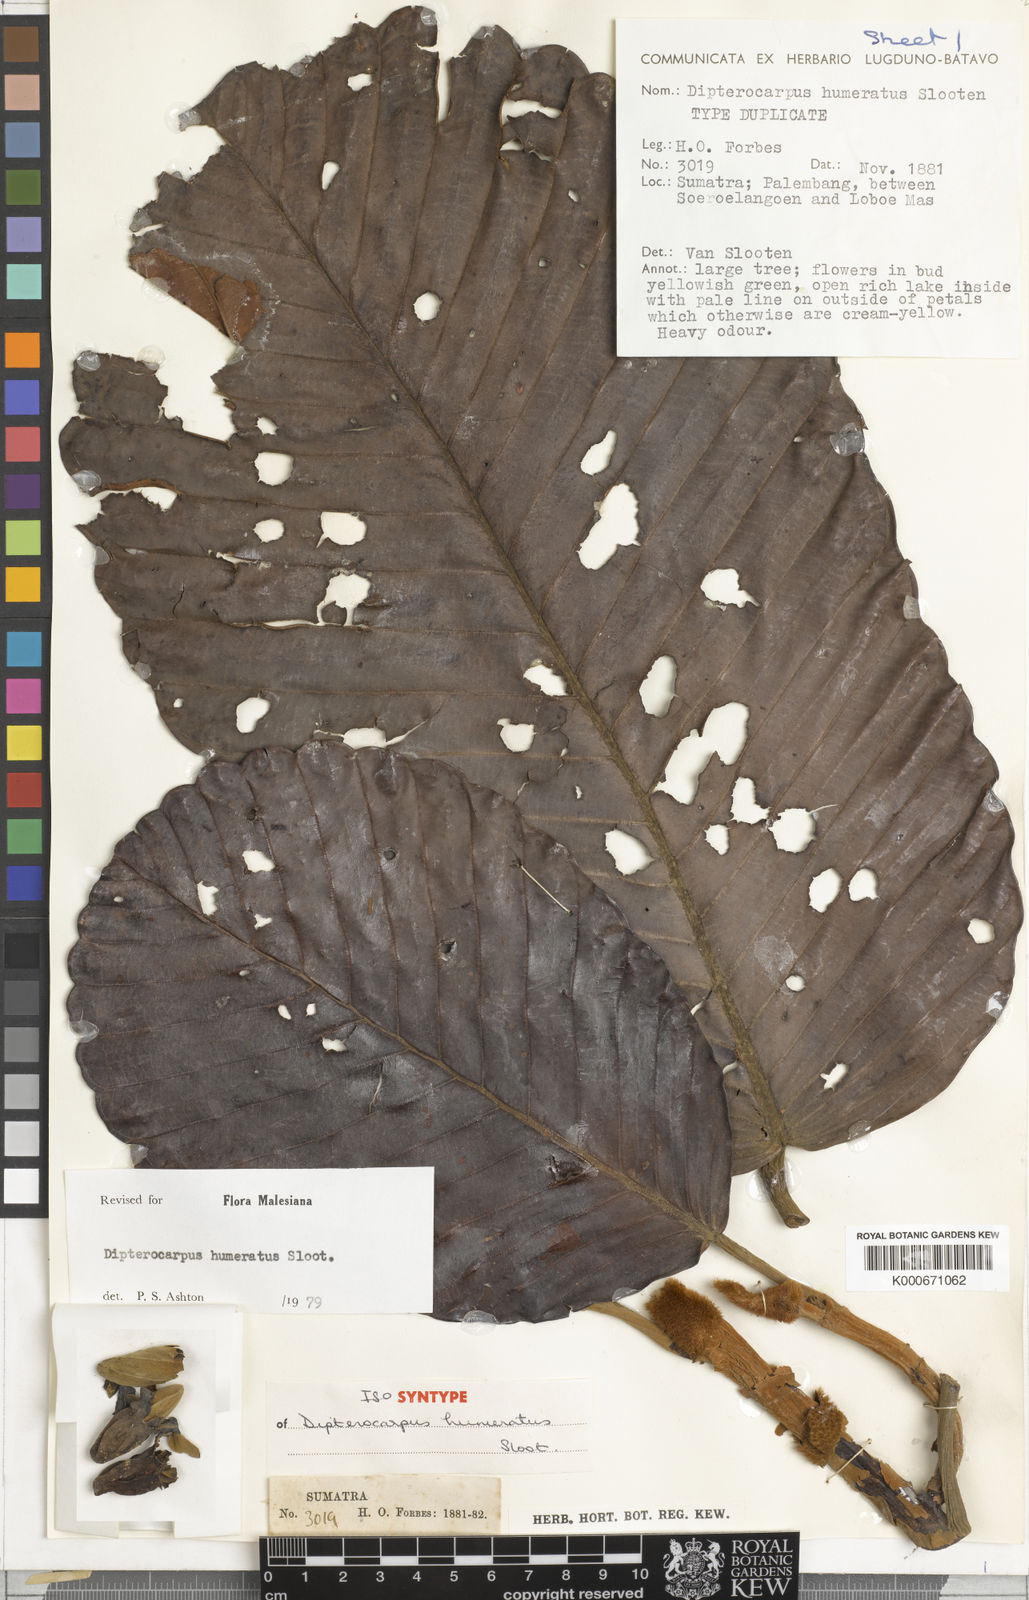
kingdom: Plantae
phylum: Tracheophyta
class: Magnoliopsida
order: Malvales
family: Dipterocarpaceae
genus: Dipterocarpus
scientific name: Dipterocarpus humeratus
